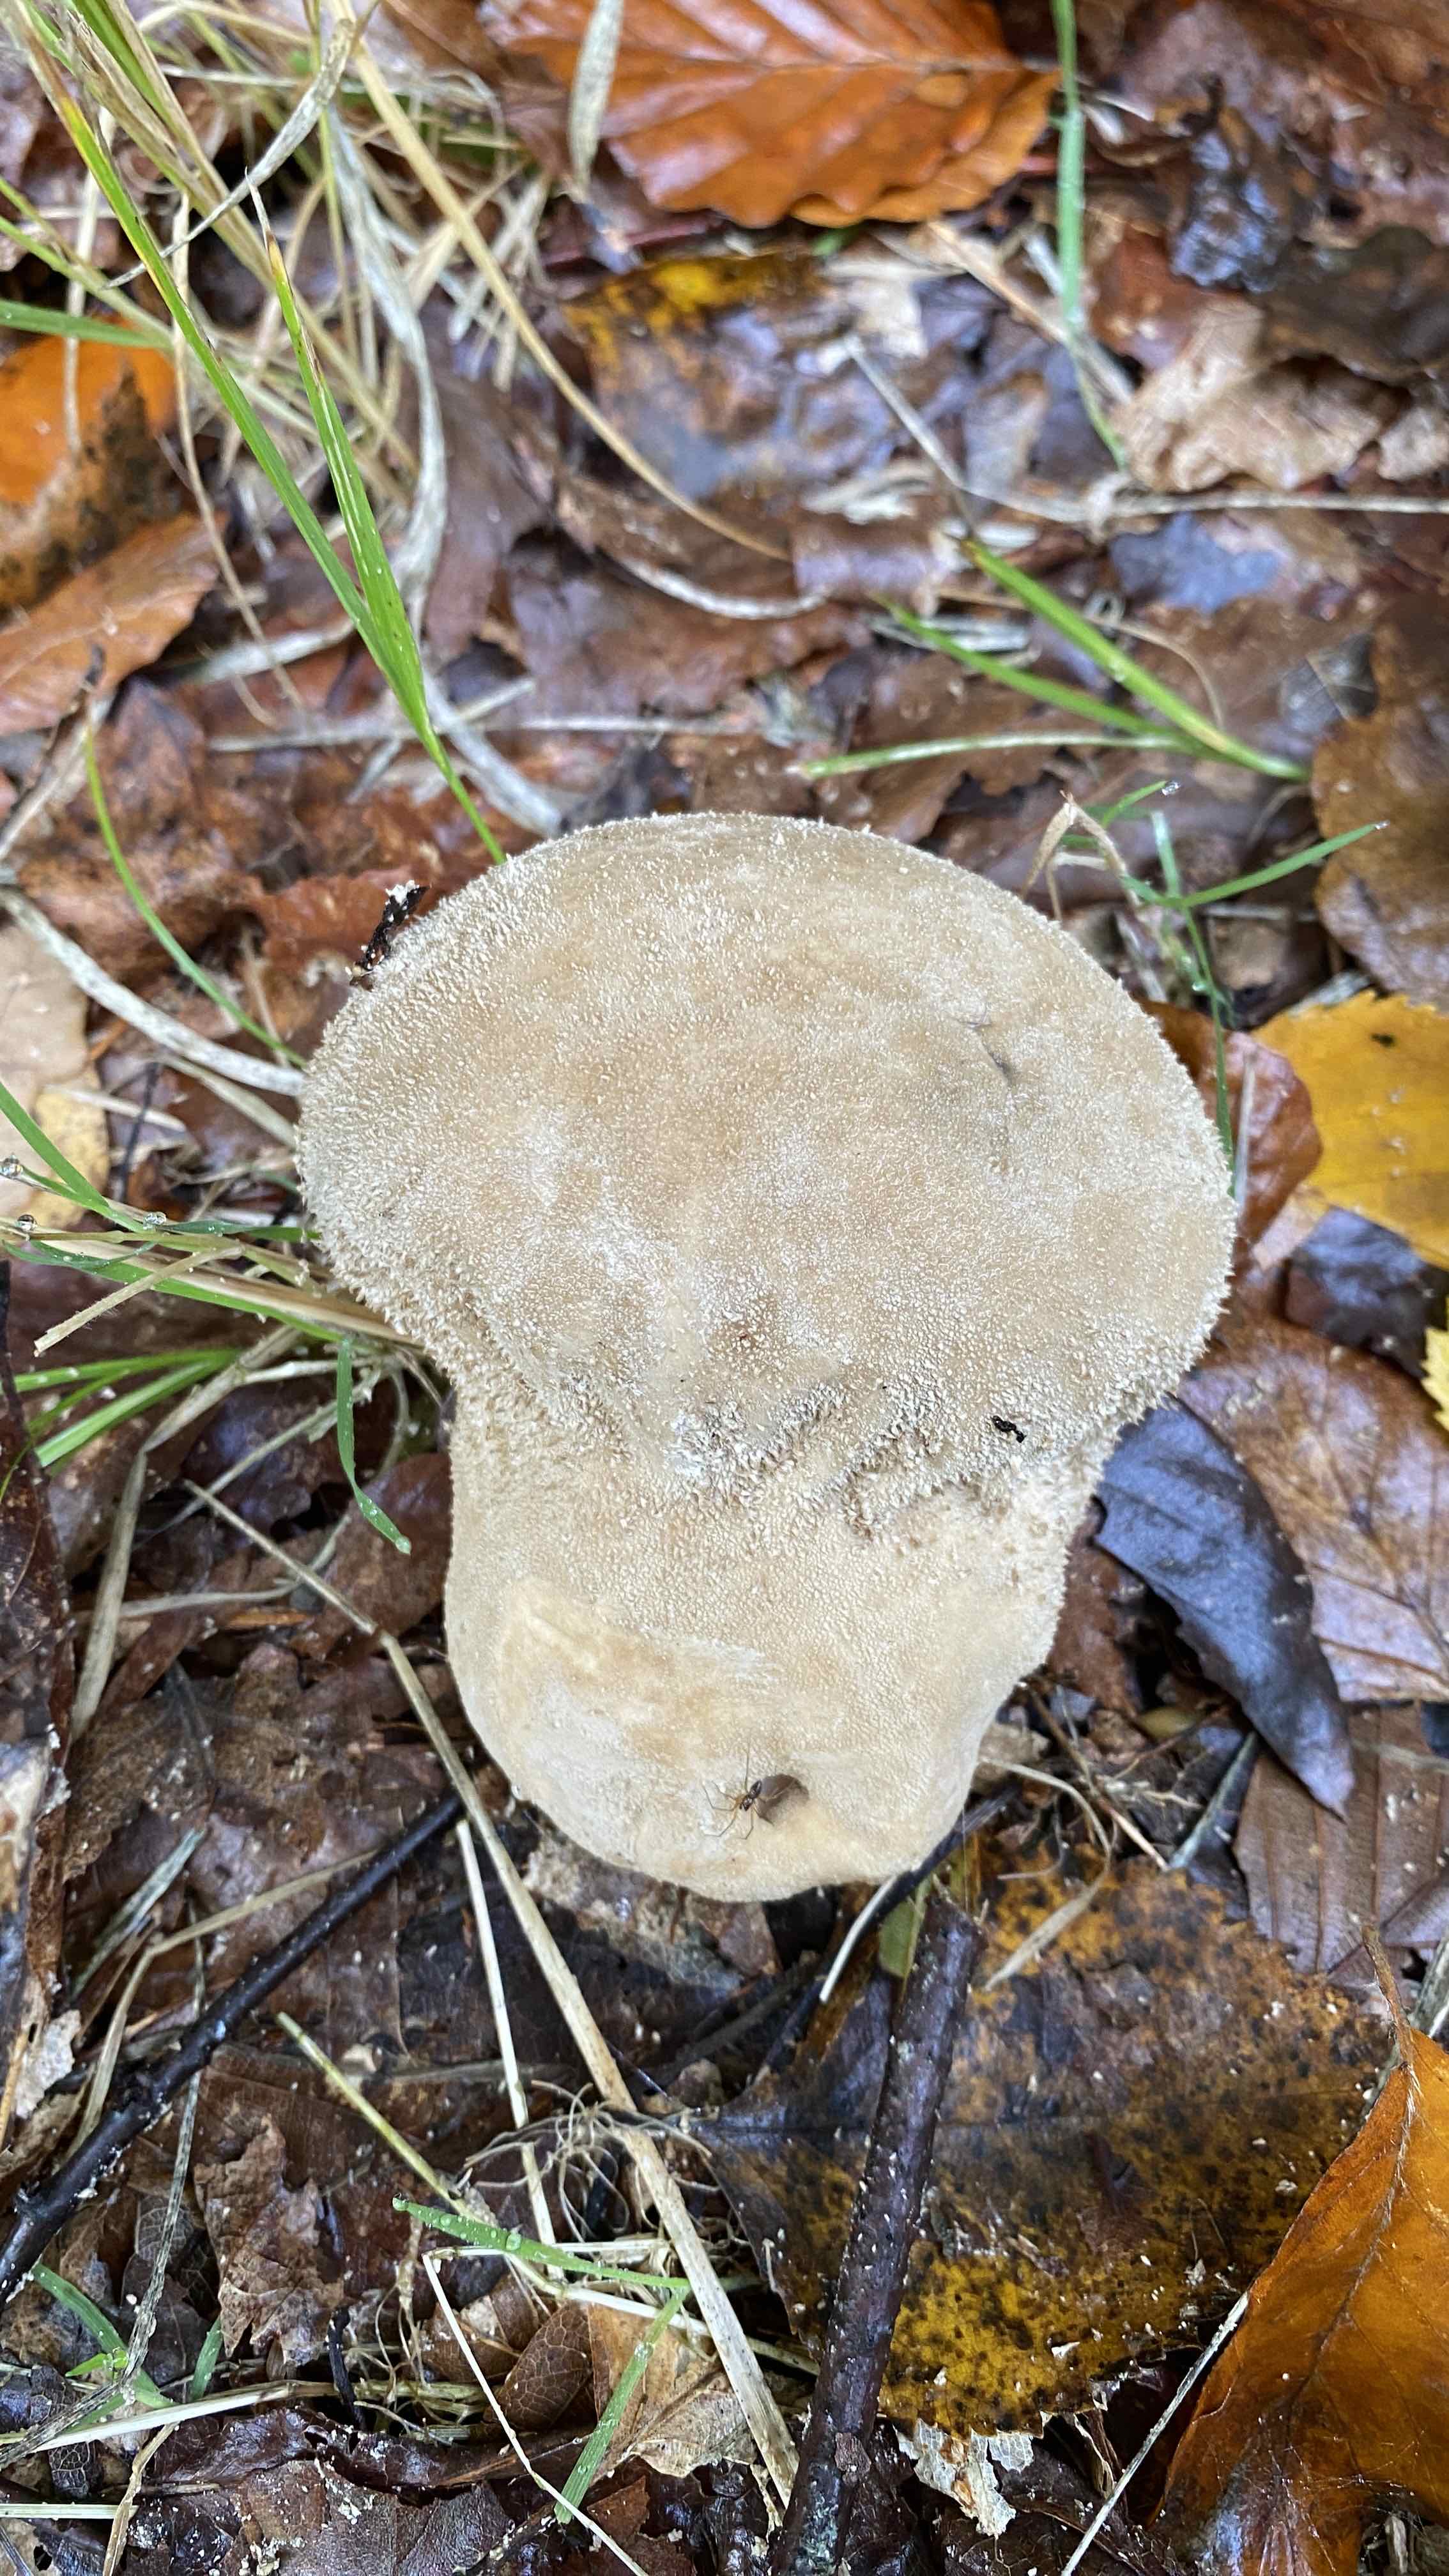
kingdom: Fungi
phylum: Basidiomycota
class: Agaricomycetes
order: Agaricales
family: Lycoperdaceae
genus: Lycoperdon
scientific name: Lycoperdon excipuliforme
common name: højstokket støvbold
